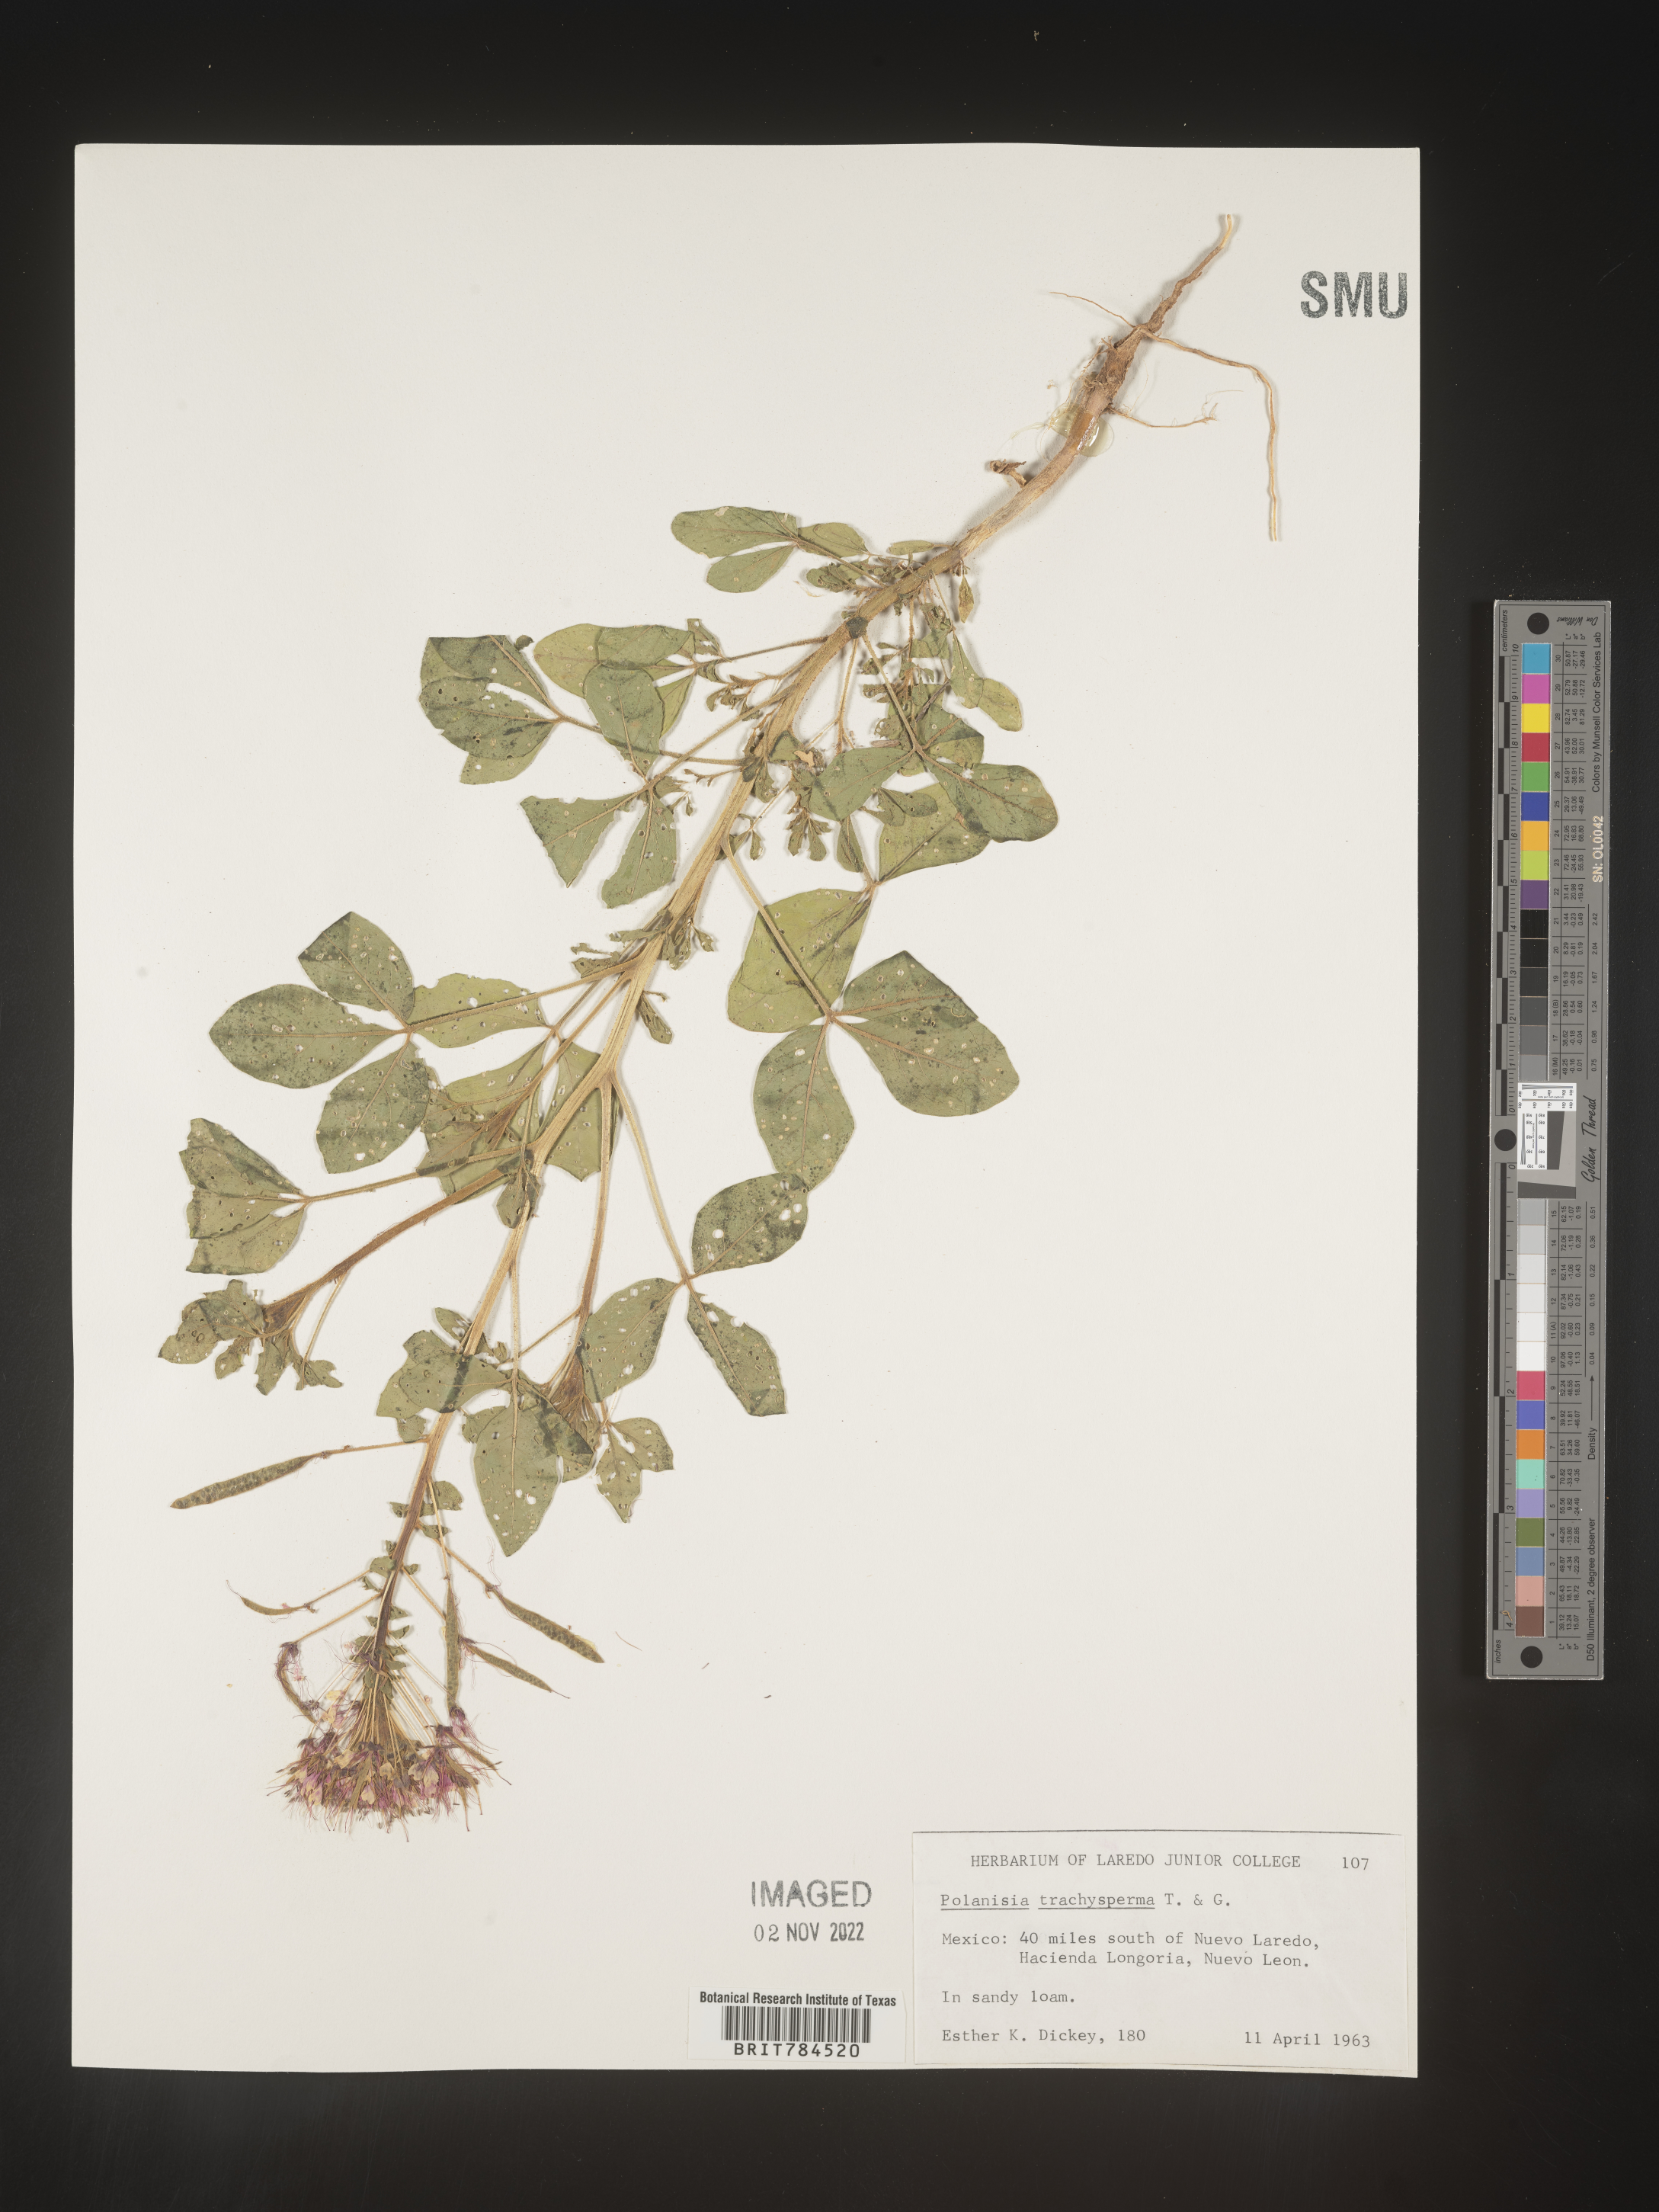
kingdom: Plantae
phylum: Tracheophyta
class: Magnoliopsida
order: Brassicales
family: Cleomaceae
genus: Polanisia
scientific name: Polanisia
